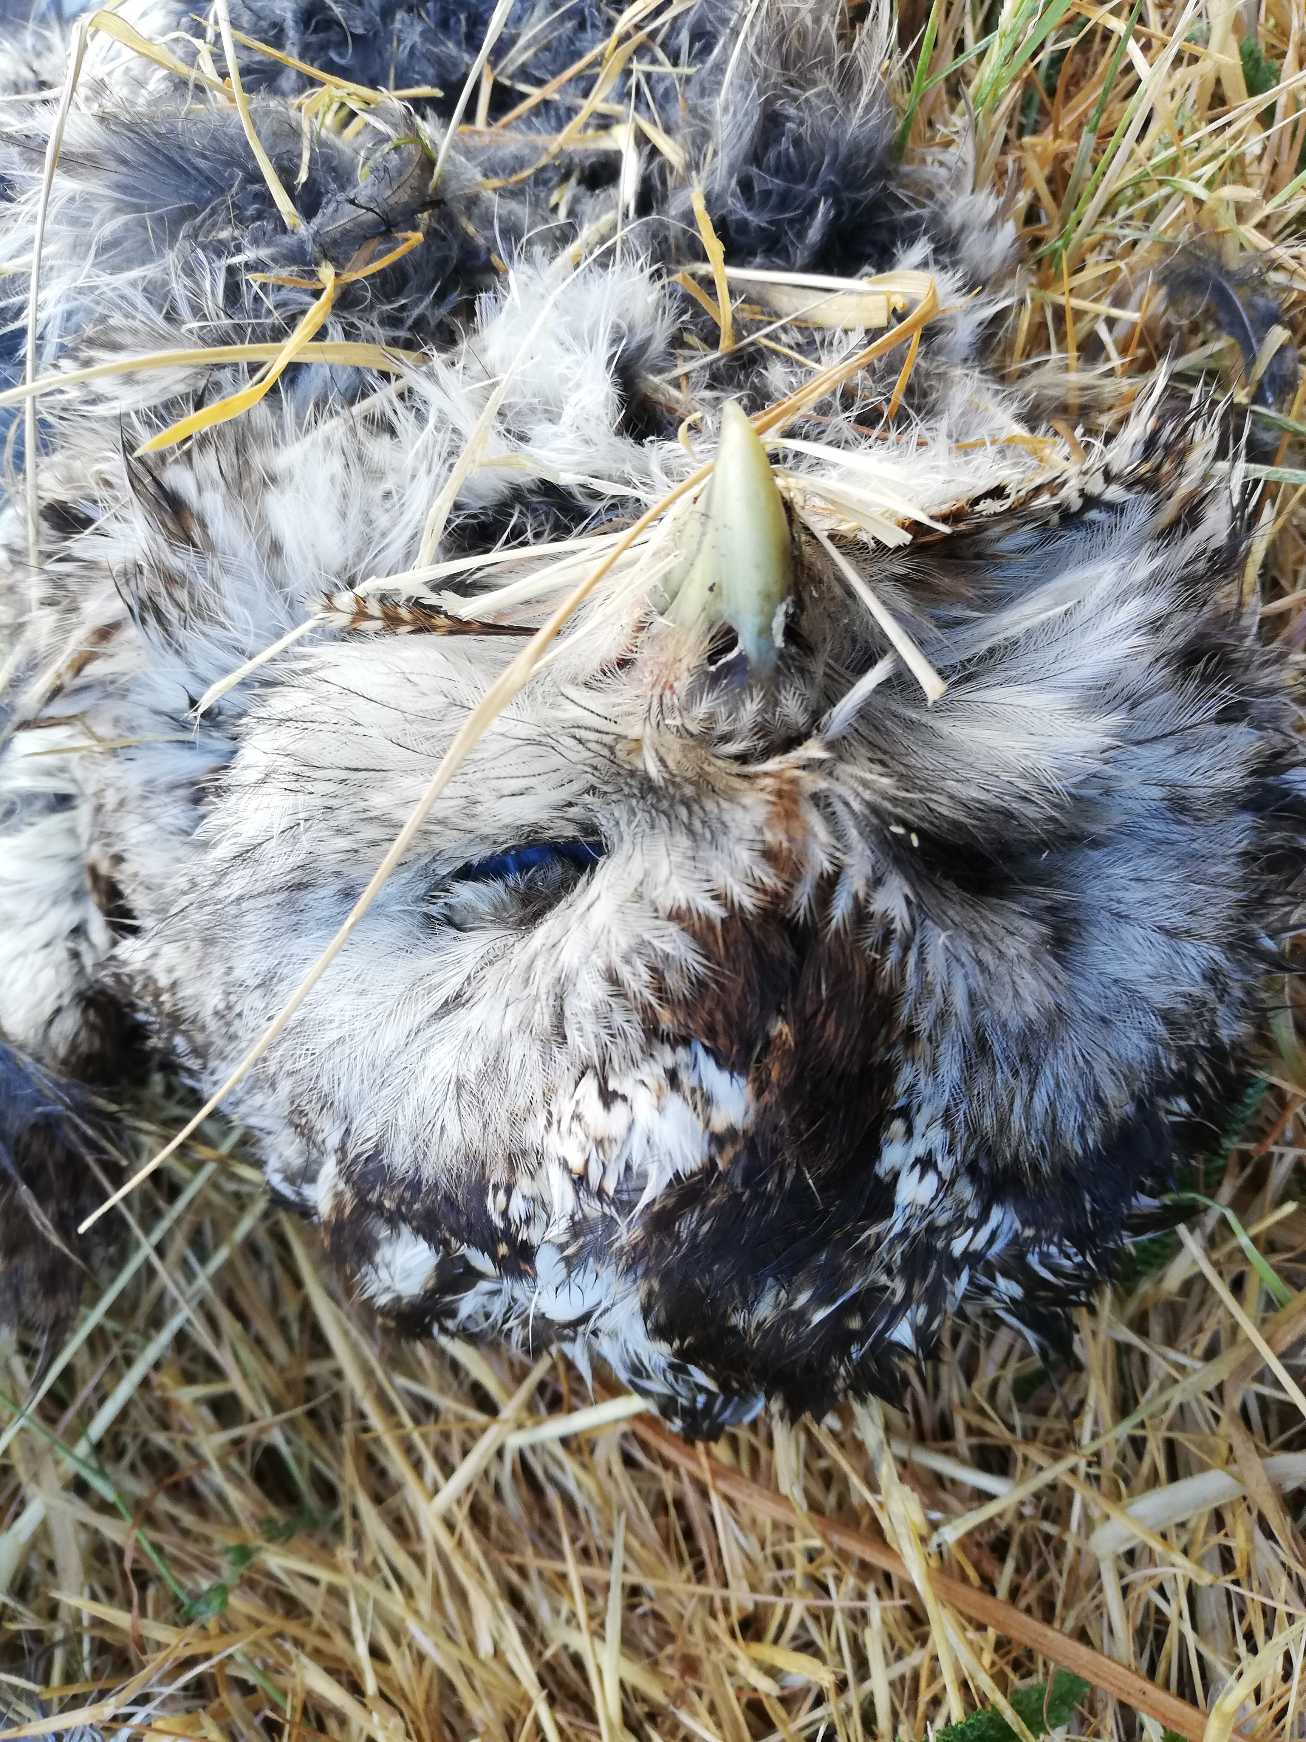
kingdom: Animalia
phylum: Chordata
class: Aves
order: Strigiformes
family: Strigidae
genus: Strix
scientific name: Strix aluco
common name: Natugle
